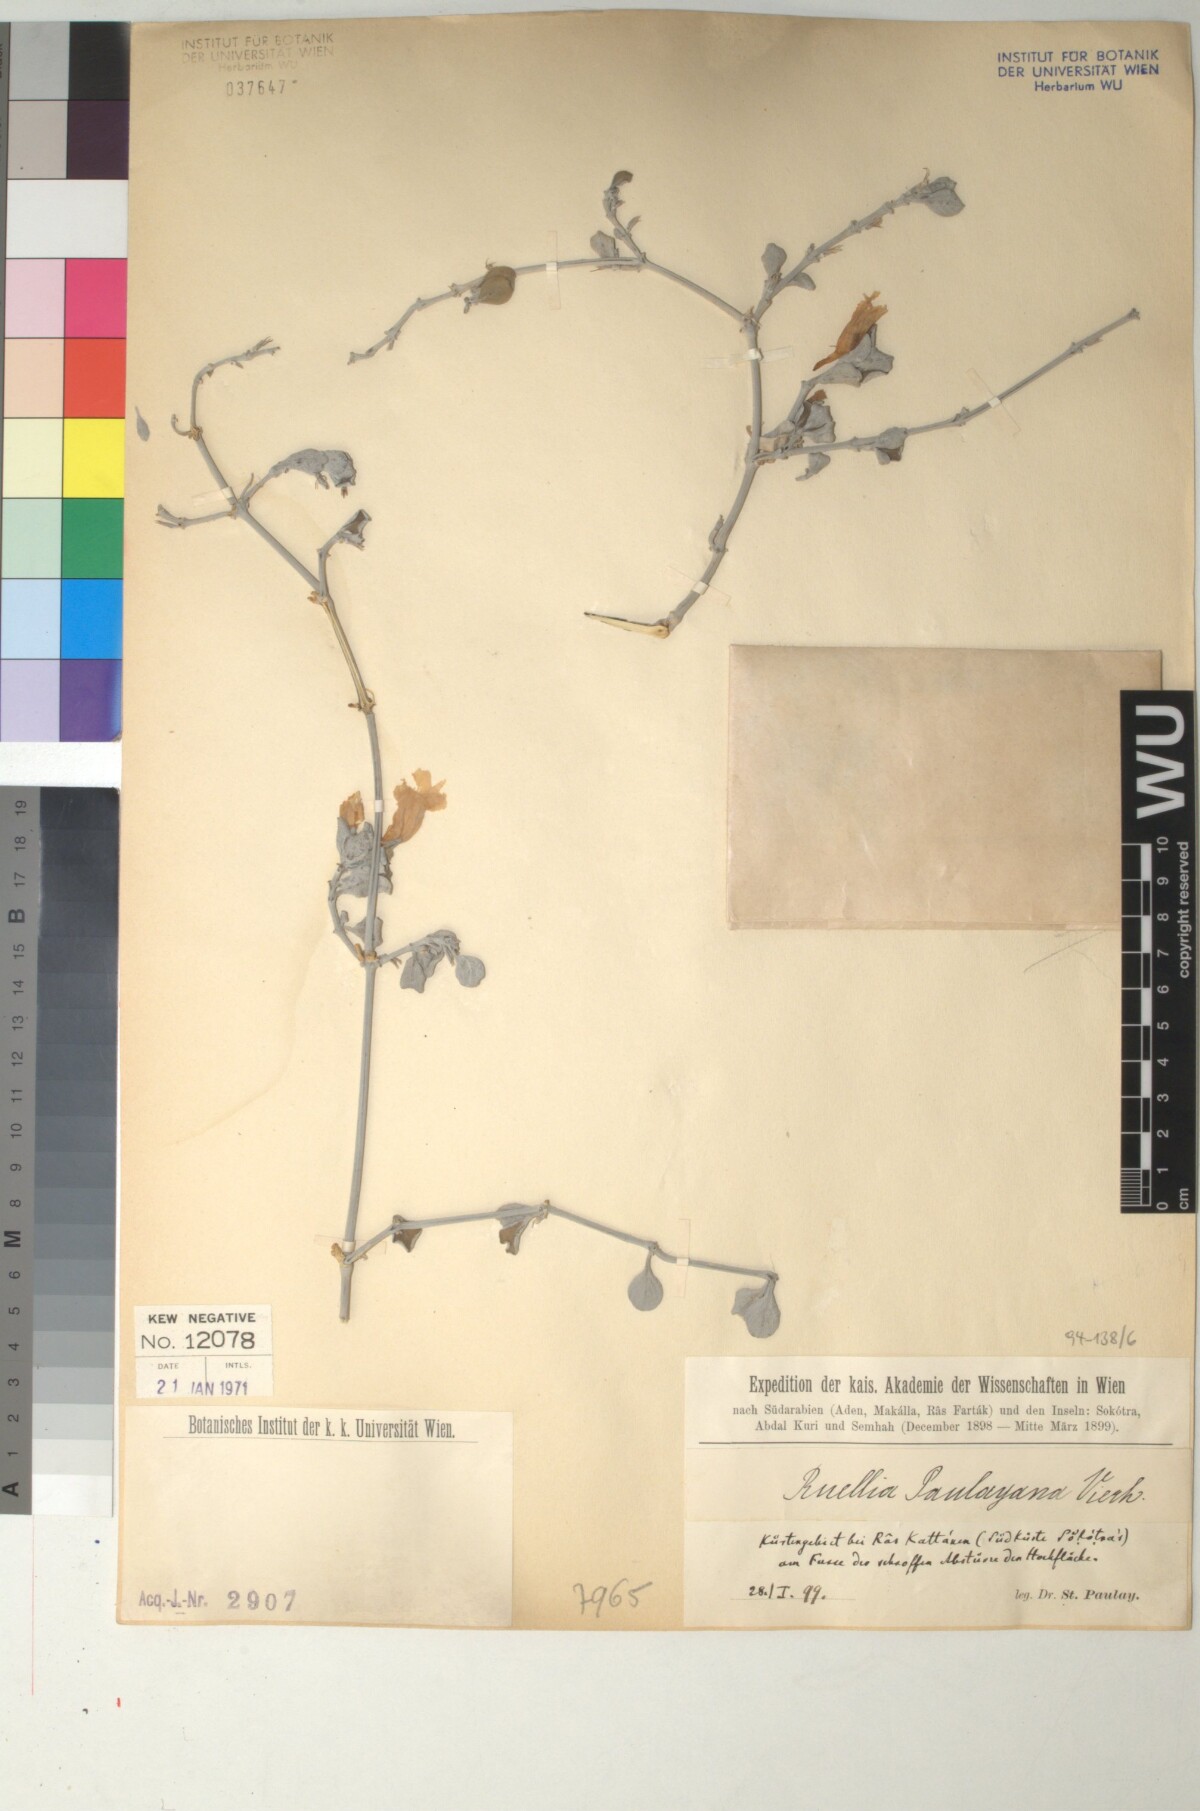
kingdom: Plantae
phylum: Tracheophyta
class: Magnoliopsida
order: Lamiales
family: Acanthaceae
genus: Ruellia
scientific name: Ruellia paulayana
